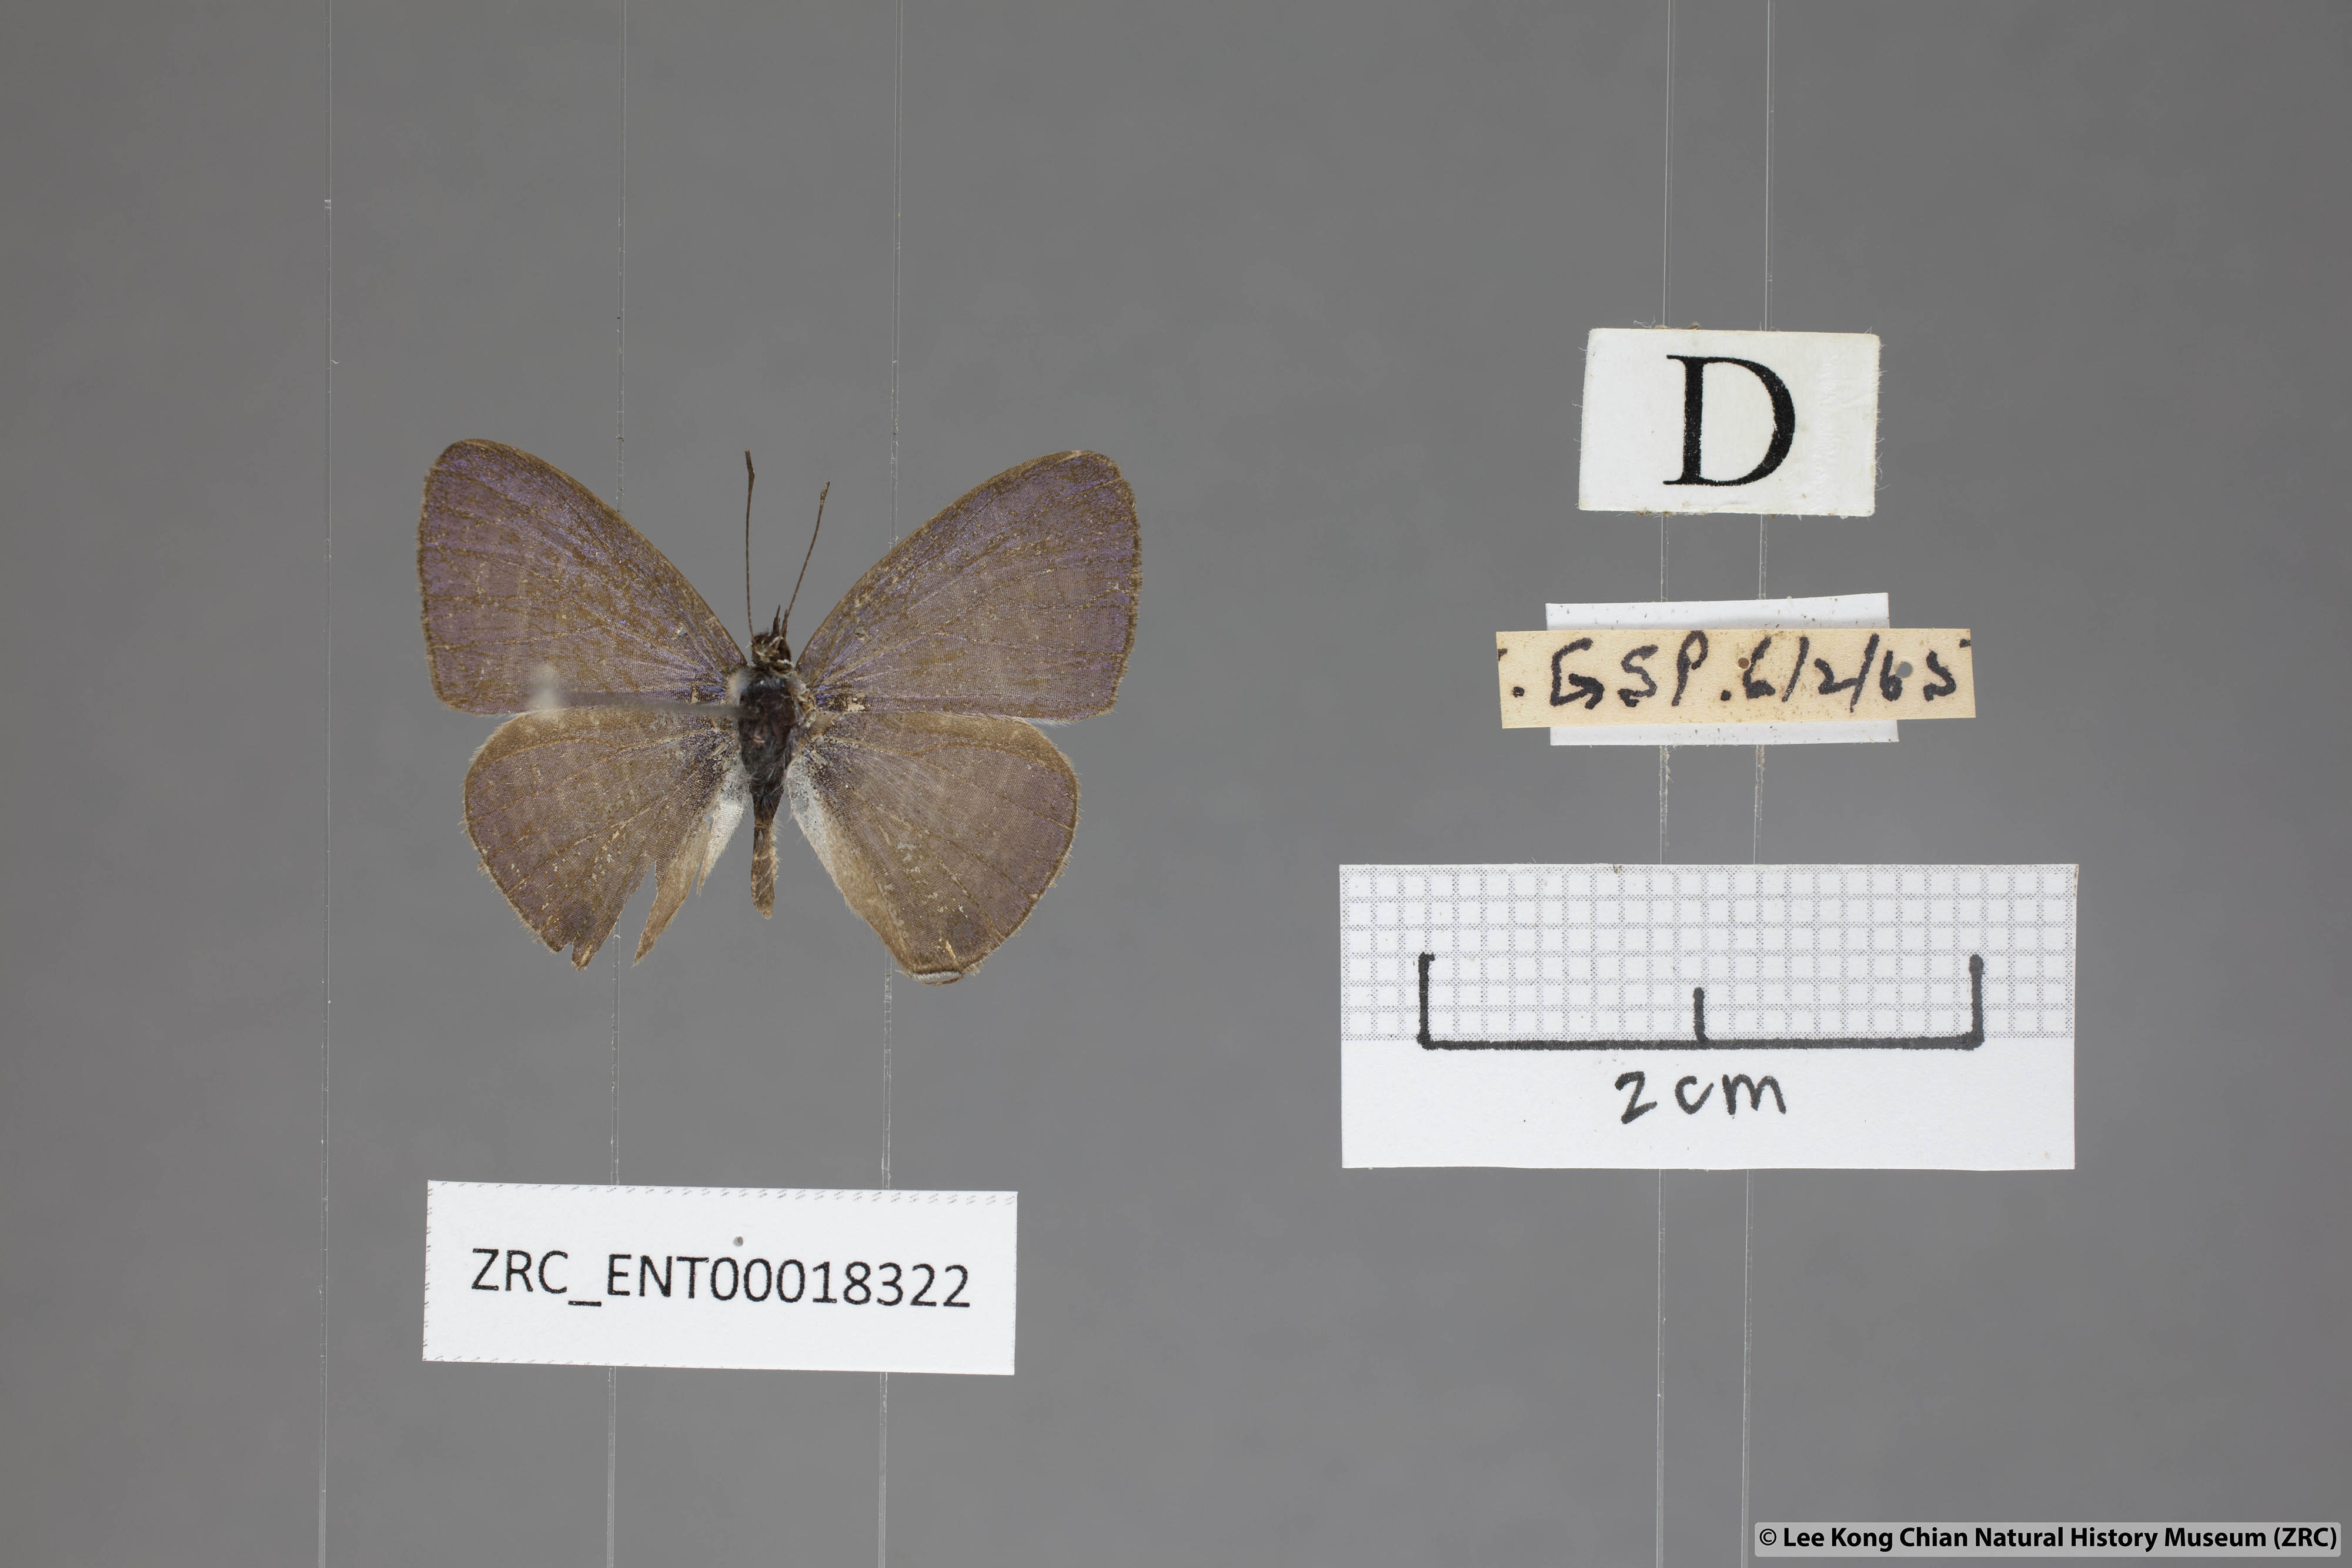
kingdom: Animalia
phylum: Arthropoda
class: Insecta
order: Lepidoptera
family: Lycaenidae
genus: Nacaduba
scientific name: Nacaduba beroe
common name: Opaque sixline blue
